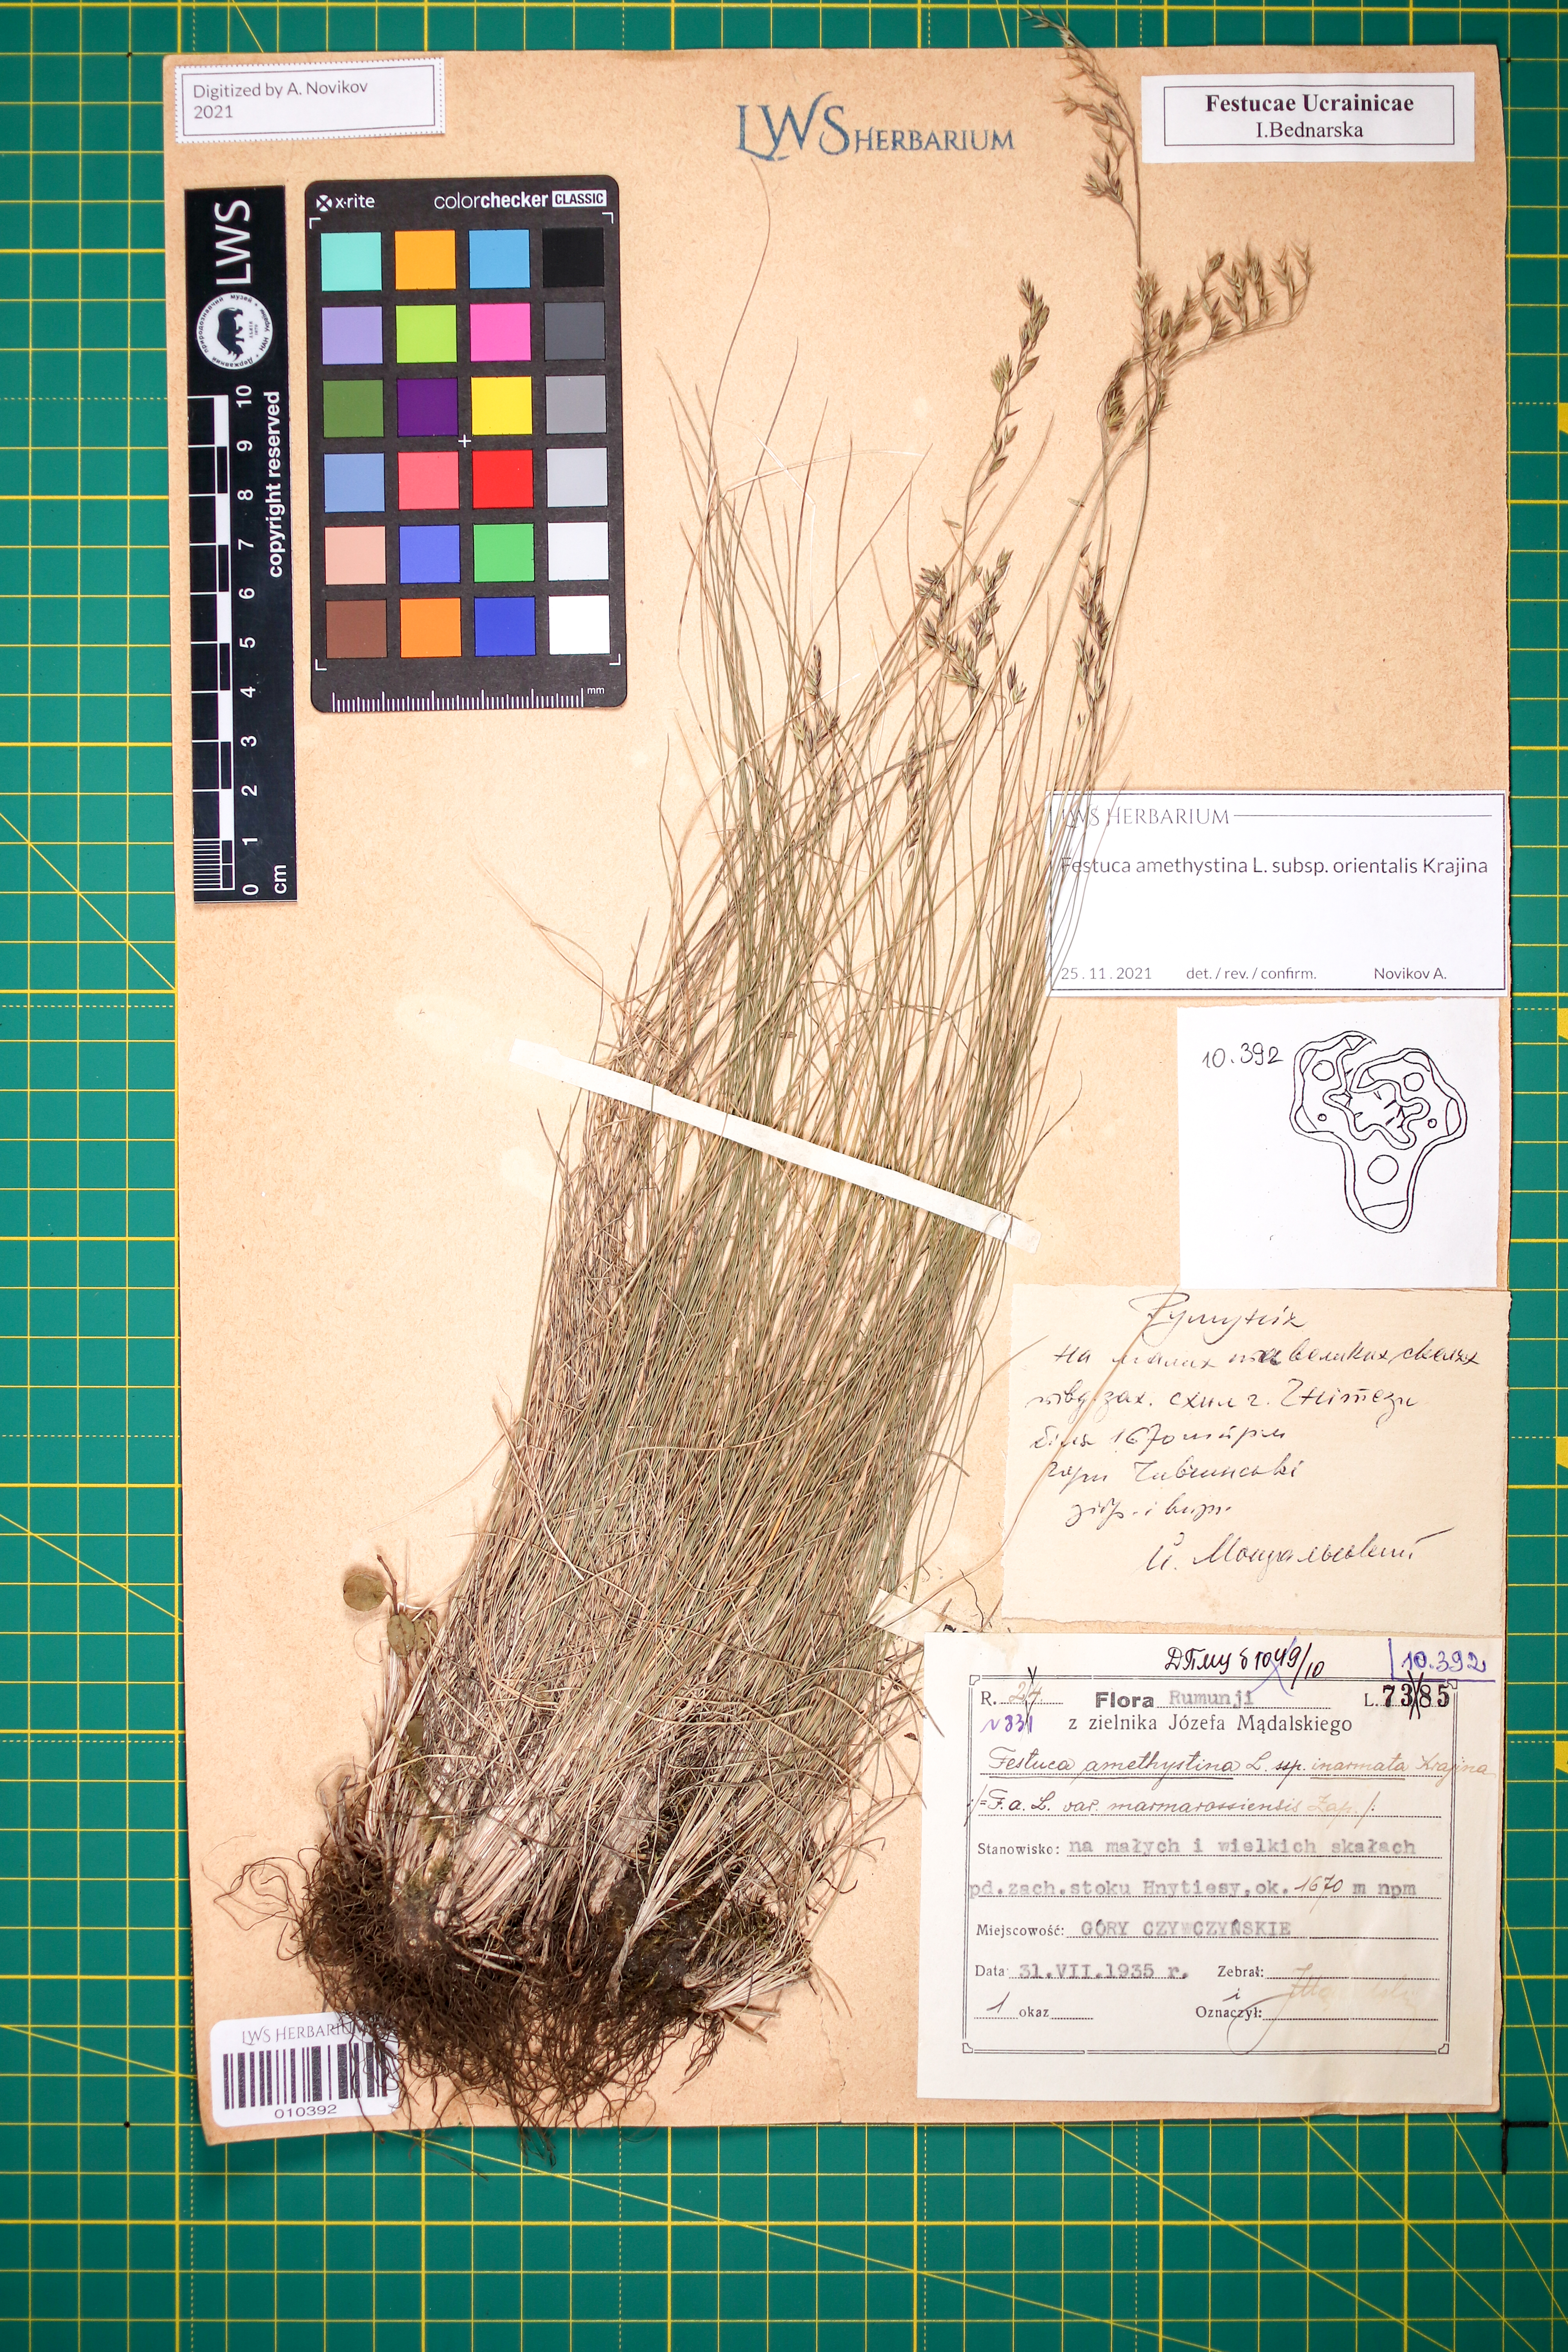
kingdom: Plantae
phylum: Tracheophyta
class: Liliopsida
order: Poales
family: Poaceae
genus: Festuca
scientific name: Festuca amethystina
